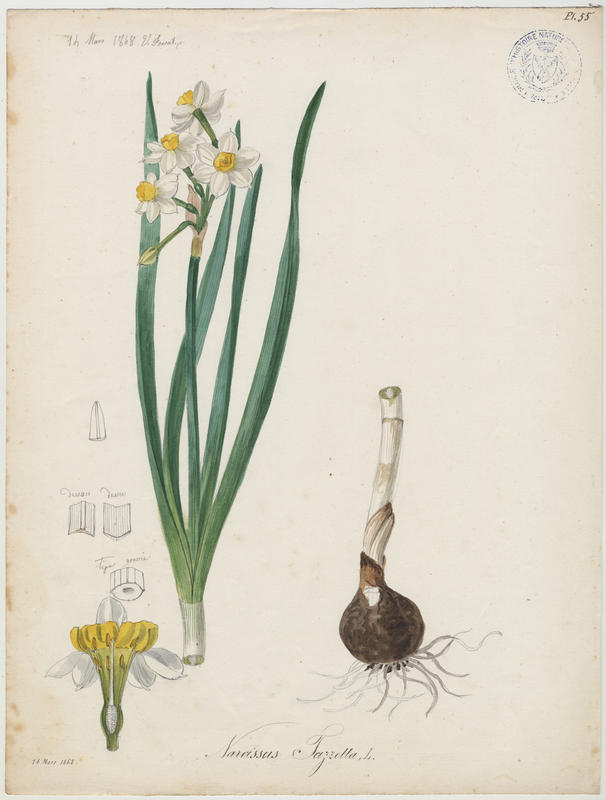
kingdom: Plantae
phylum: Tracheophyta
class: Liliopsida
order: Asparagales
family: Amaryllidaceae
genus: Narcissus
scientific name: Narcissus tazetta
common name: Bunch-flowered daffodil
